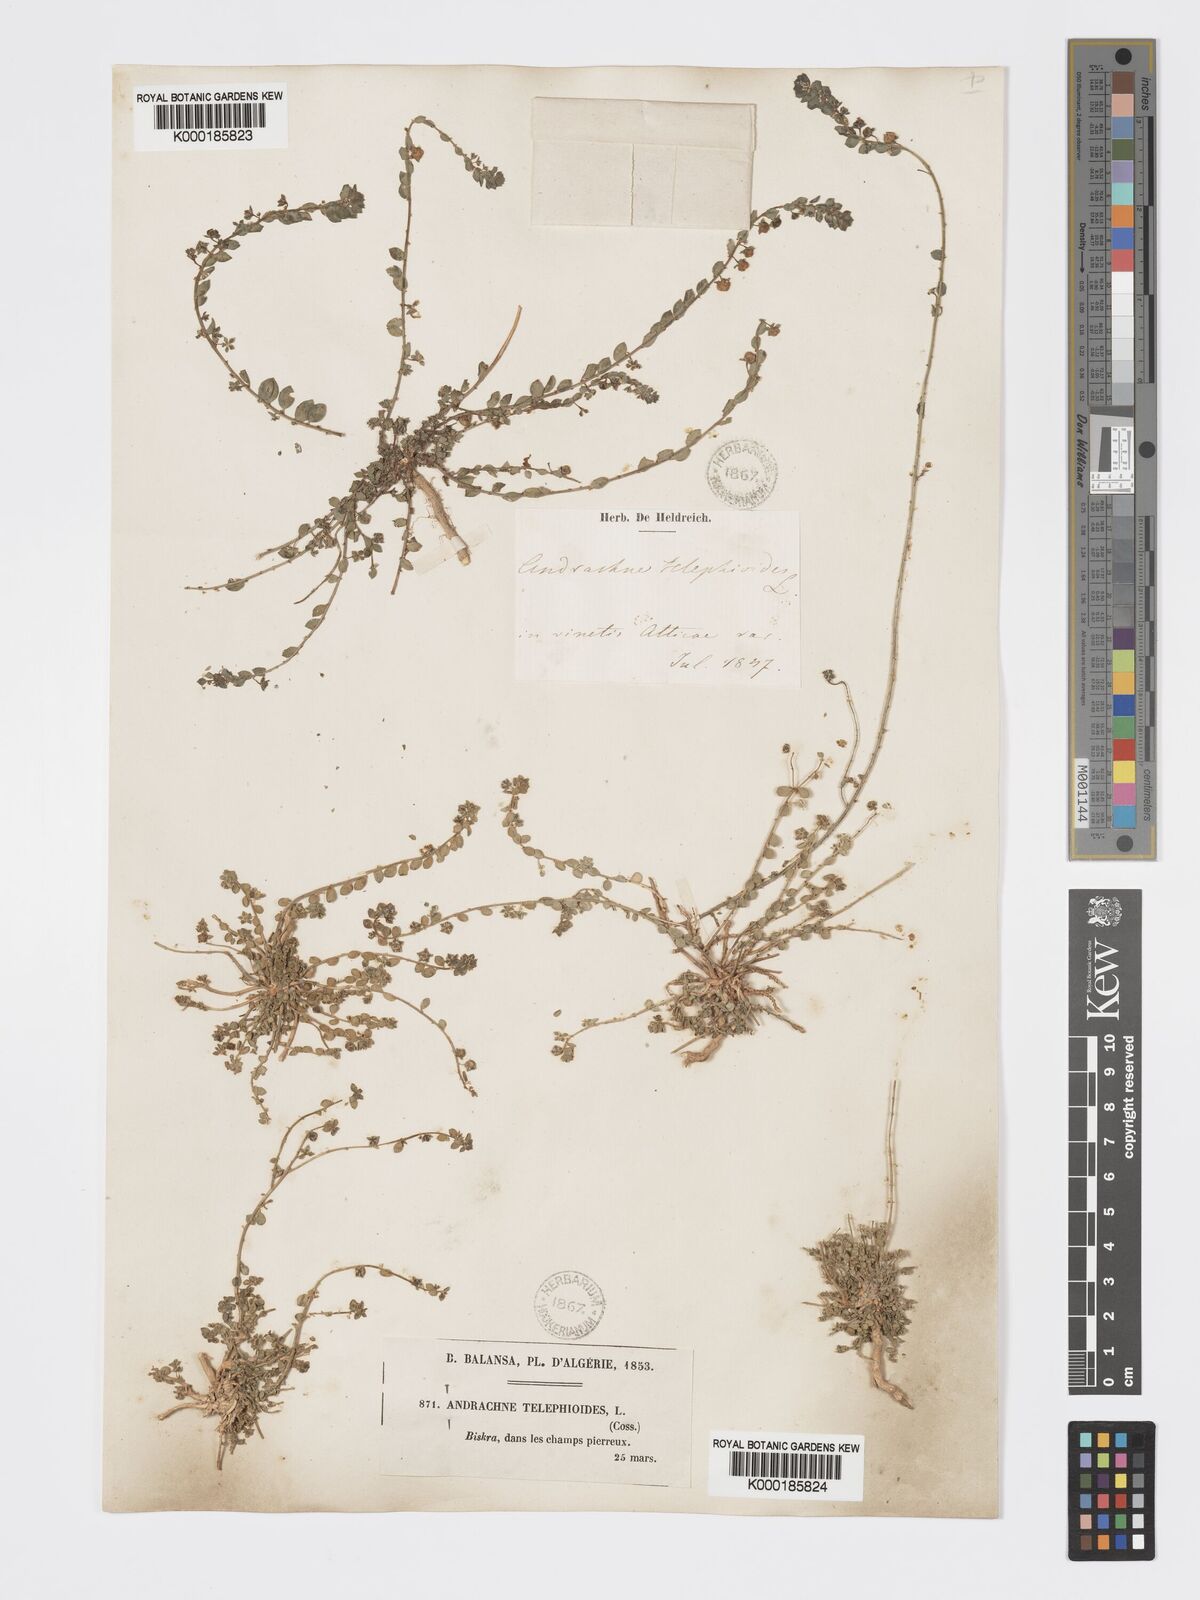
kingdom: Plantae
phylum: Tracheophyta
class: Magnoliopsida
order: Malpighiales
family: Phyllanthaceae
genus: Andrachne
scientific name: Andrachne telephioides
